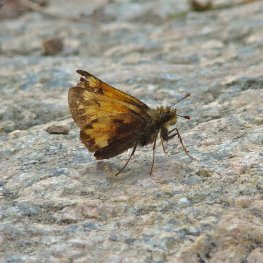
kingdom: Animalia
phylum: Arthropoda
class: Insecta
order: Lepidoptera
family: Hesperiidae
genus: Lon
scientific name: Lon hobomok
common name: Hobomok Skipper
